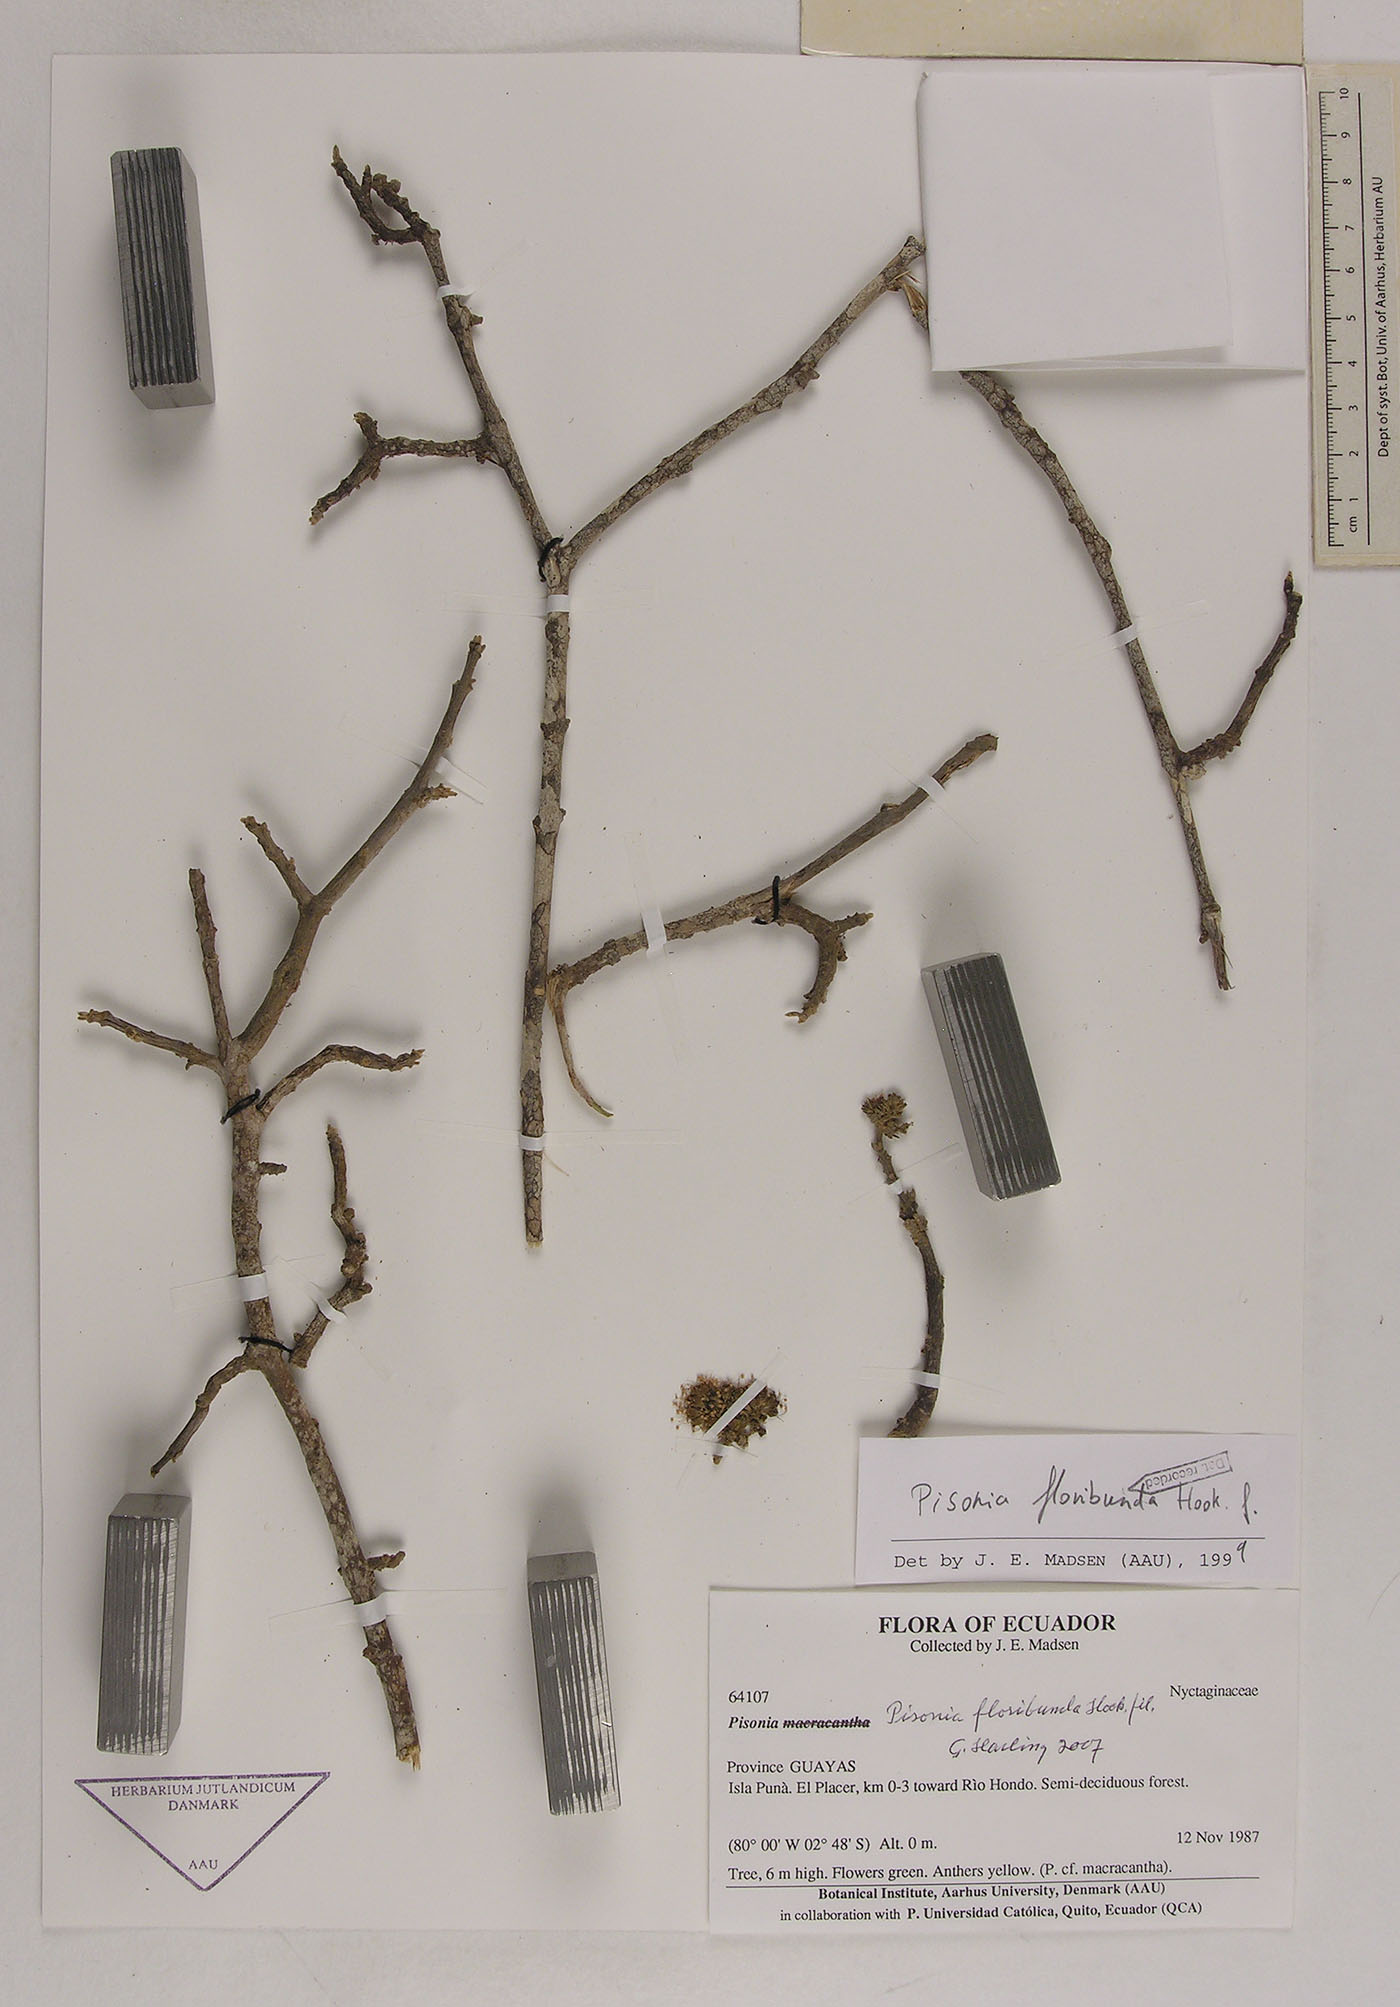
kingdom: Plantae
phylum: Tracheophyta
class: Magnoliopsida
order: Caryophyllales
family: Nyctaginaceae
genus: Guapira
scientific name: Guapira floribunda
